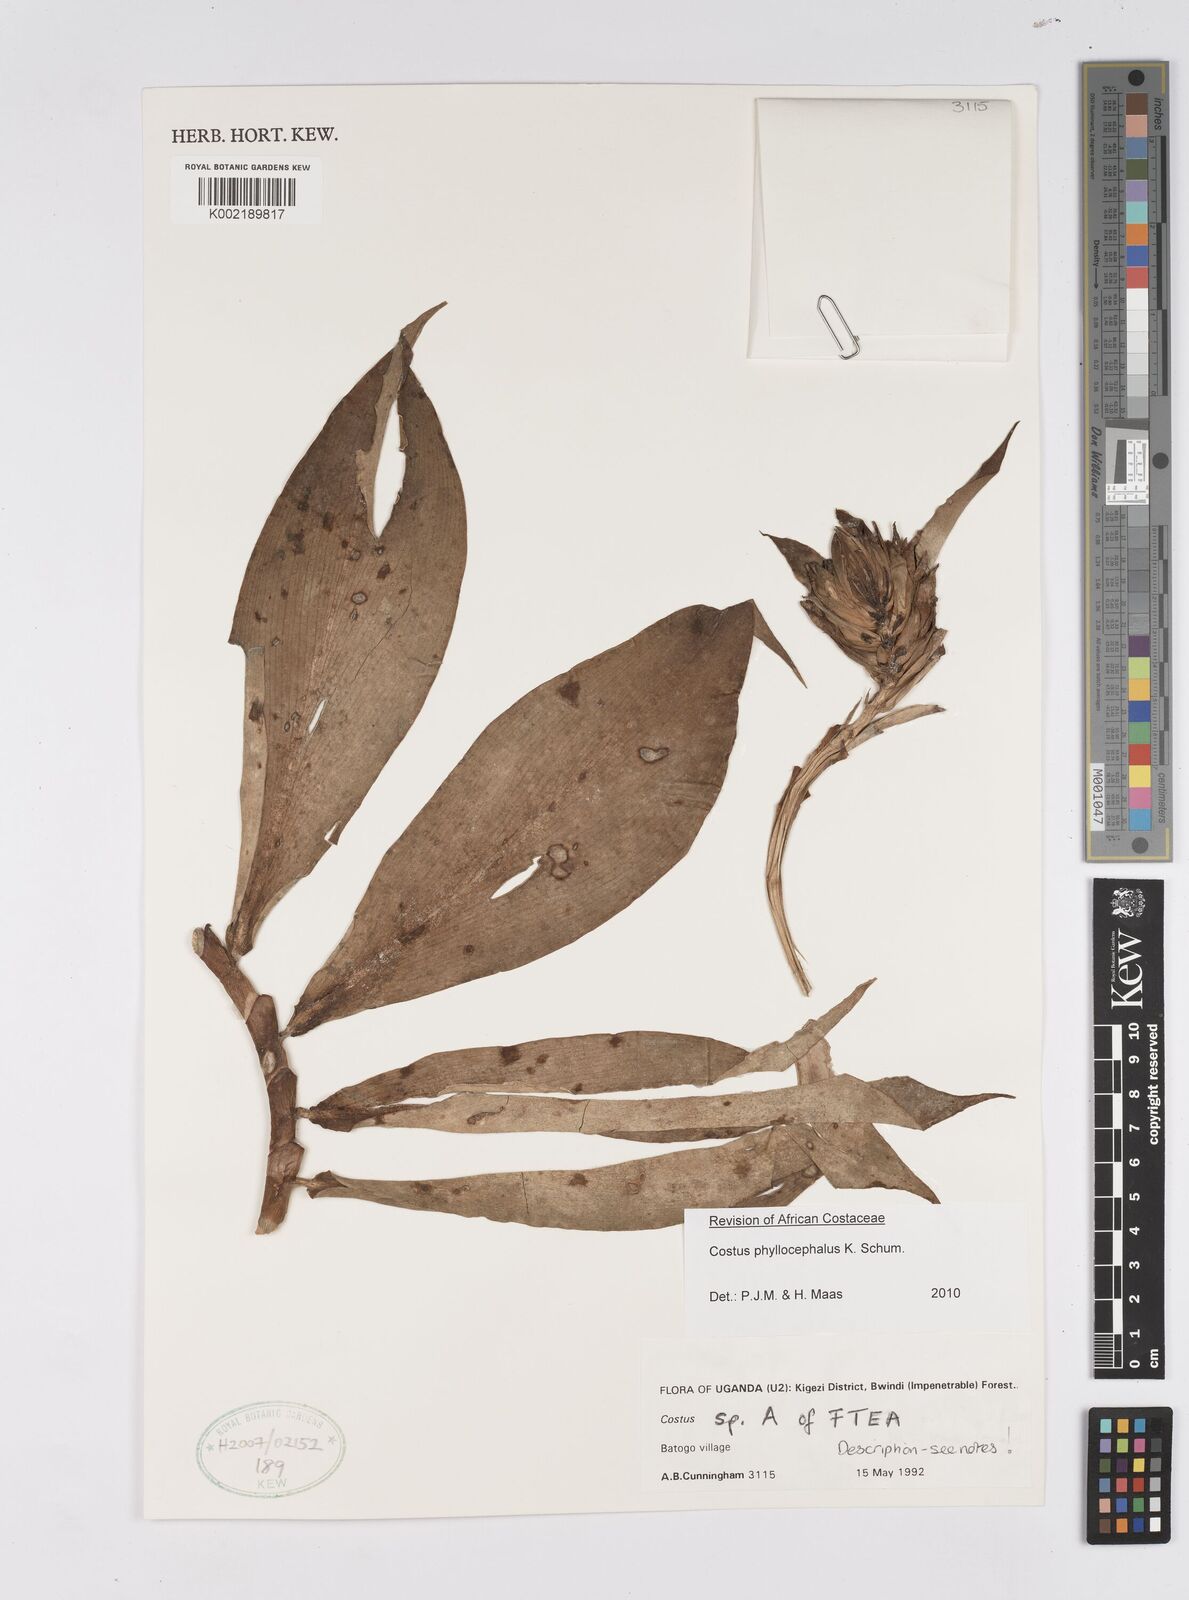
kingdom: Plantae
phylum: Tracheophyta
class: Liliopsida
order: Zingiberales
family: Costaceae
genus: Costus
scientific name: Costus phyllocephalus
